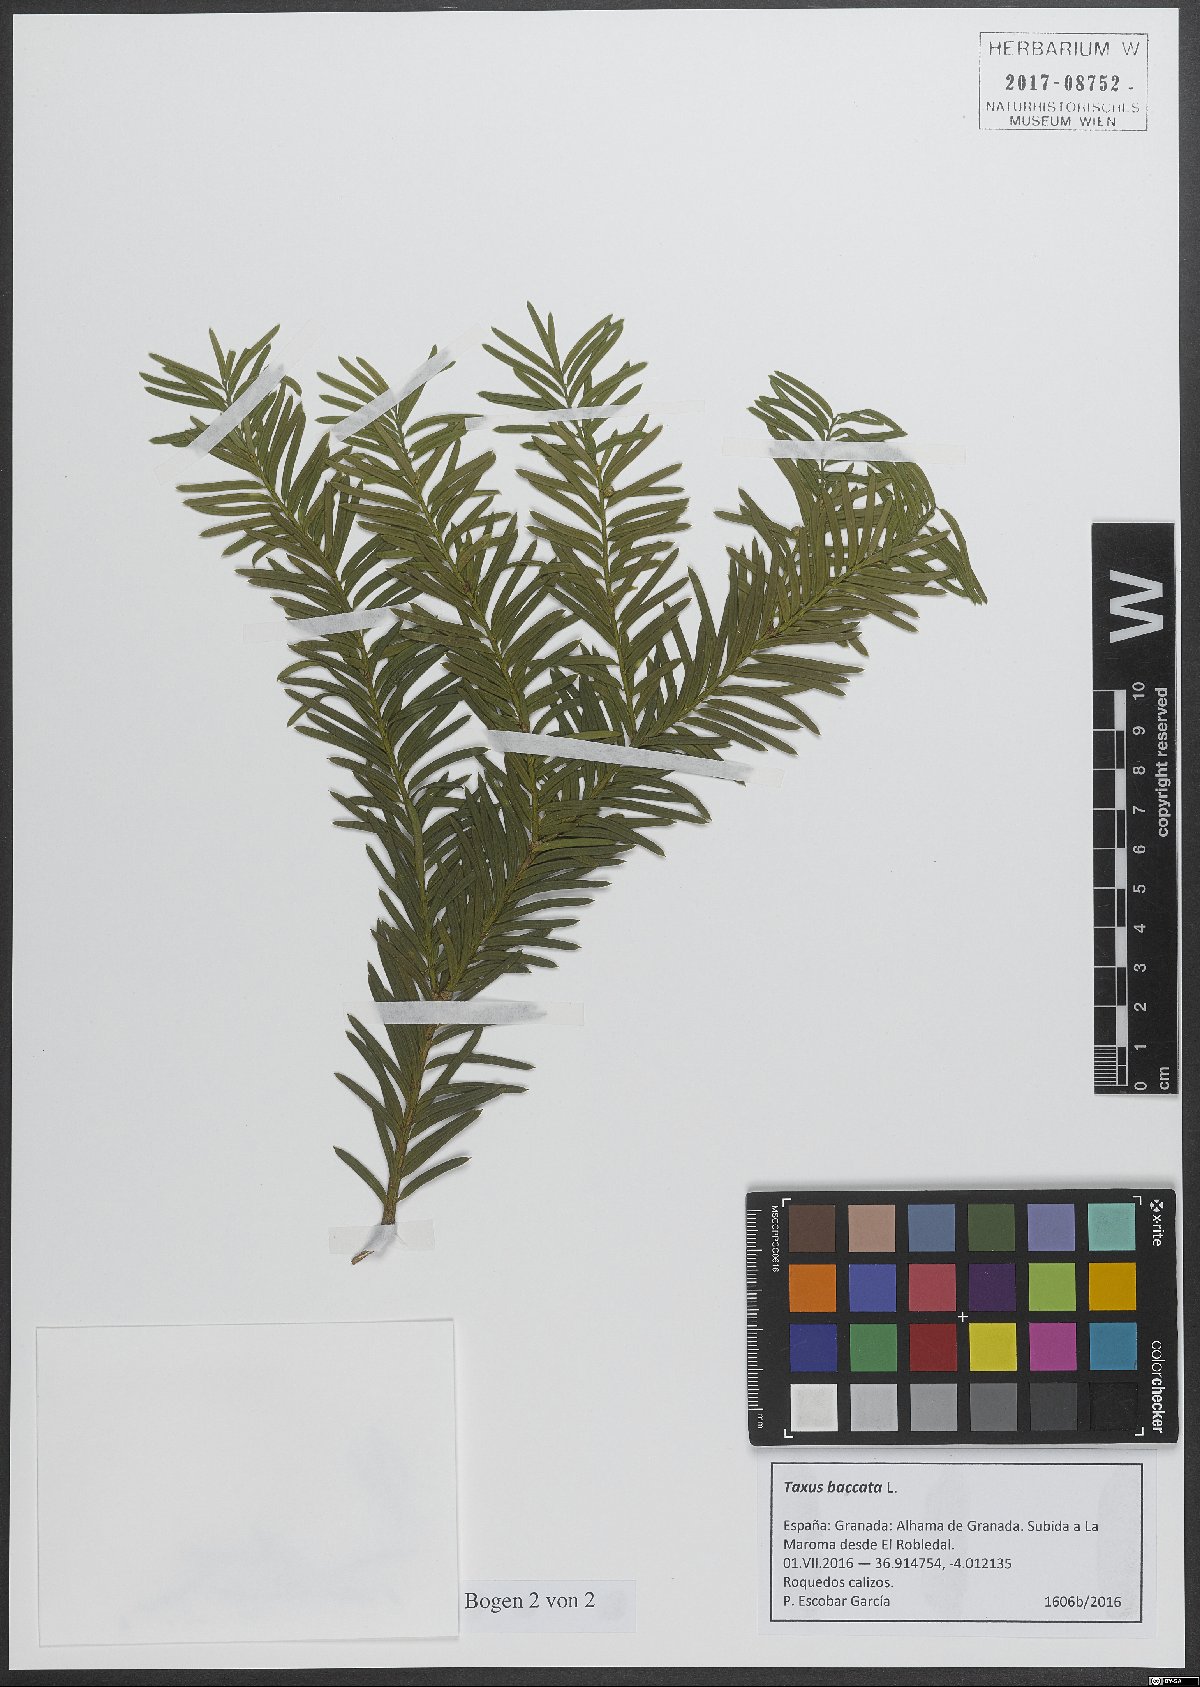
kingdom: Plantae
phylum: Tracheophyta
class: Pinopsida
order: Pinales
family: Taxaceae
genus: Taxus
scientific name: Taxus baccata
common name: Yew
